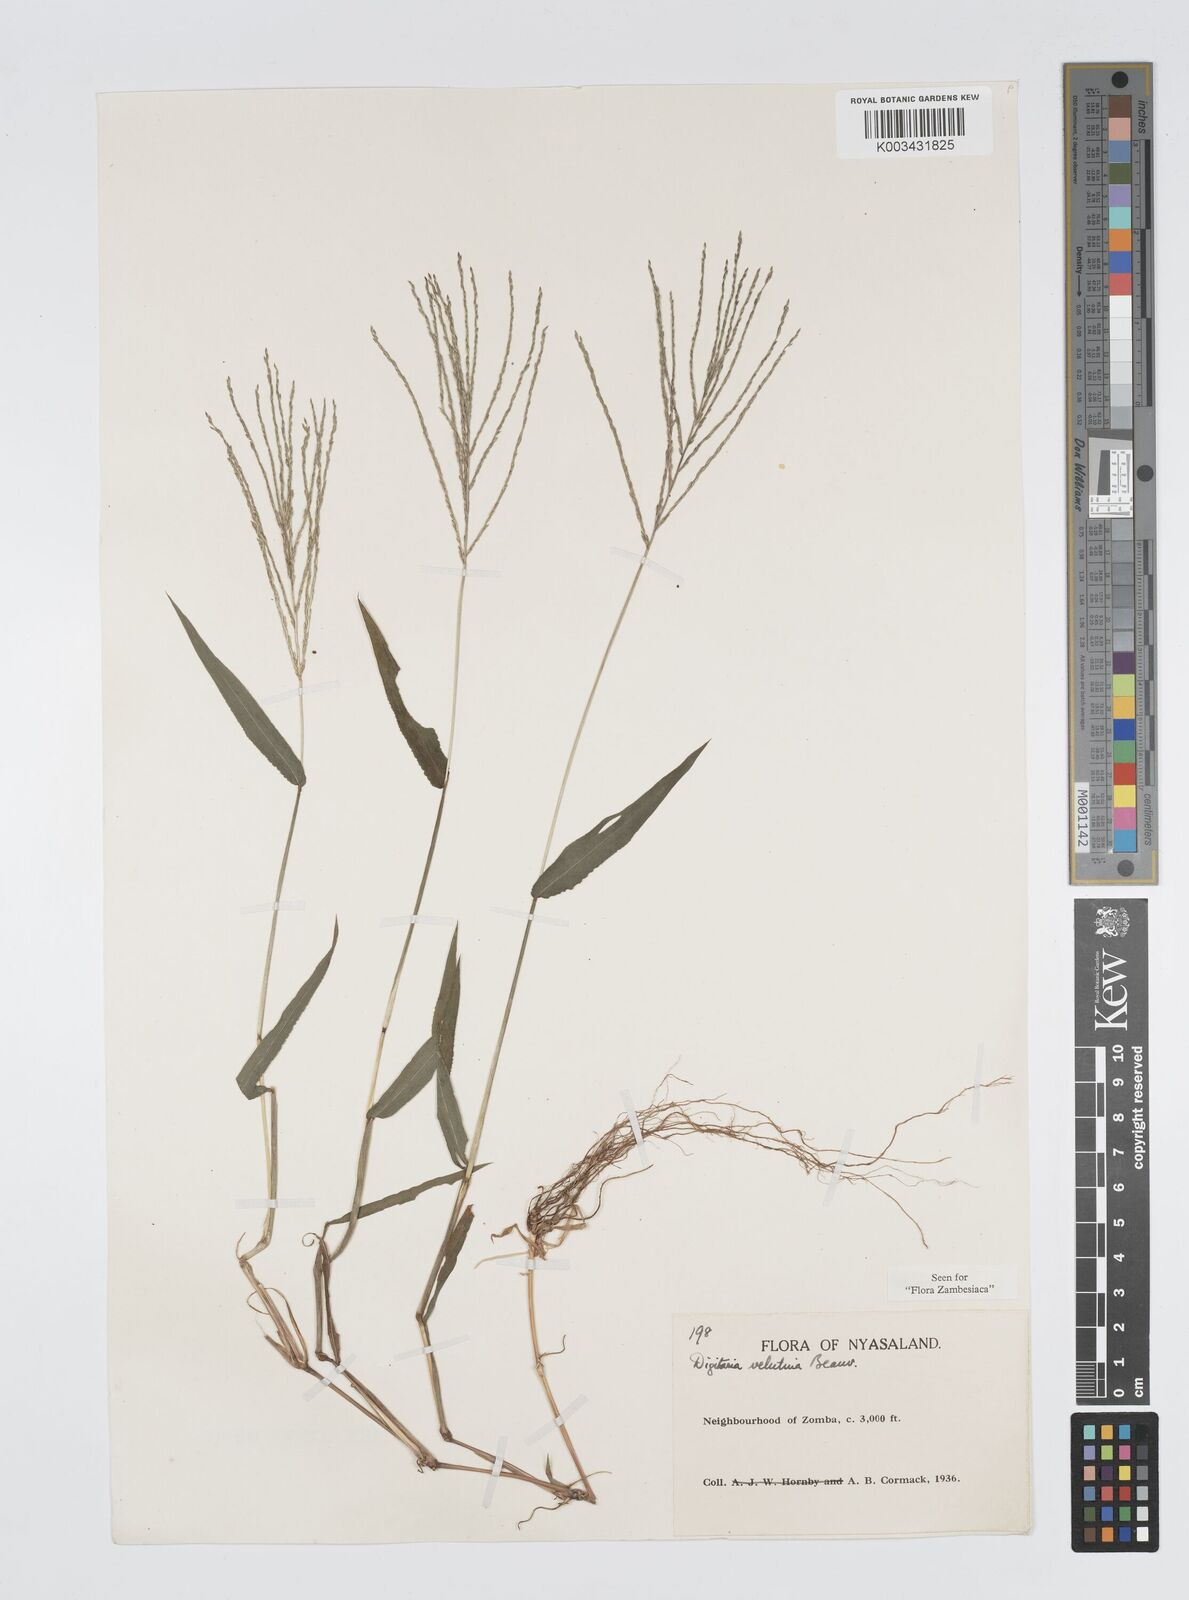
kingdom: Plantae
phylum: Tracheophyta
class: Liliopsida
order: Poales
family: Poaceae
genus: Digitaria
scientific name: Digitaria velutina
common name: Long-plume finger grass
